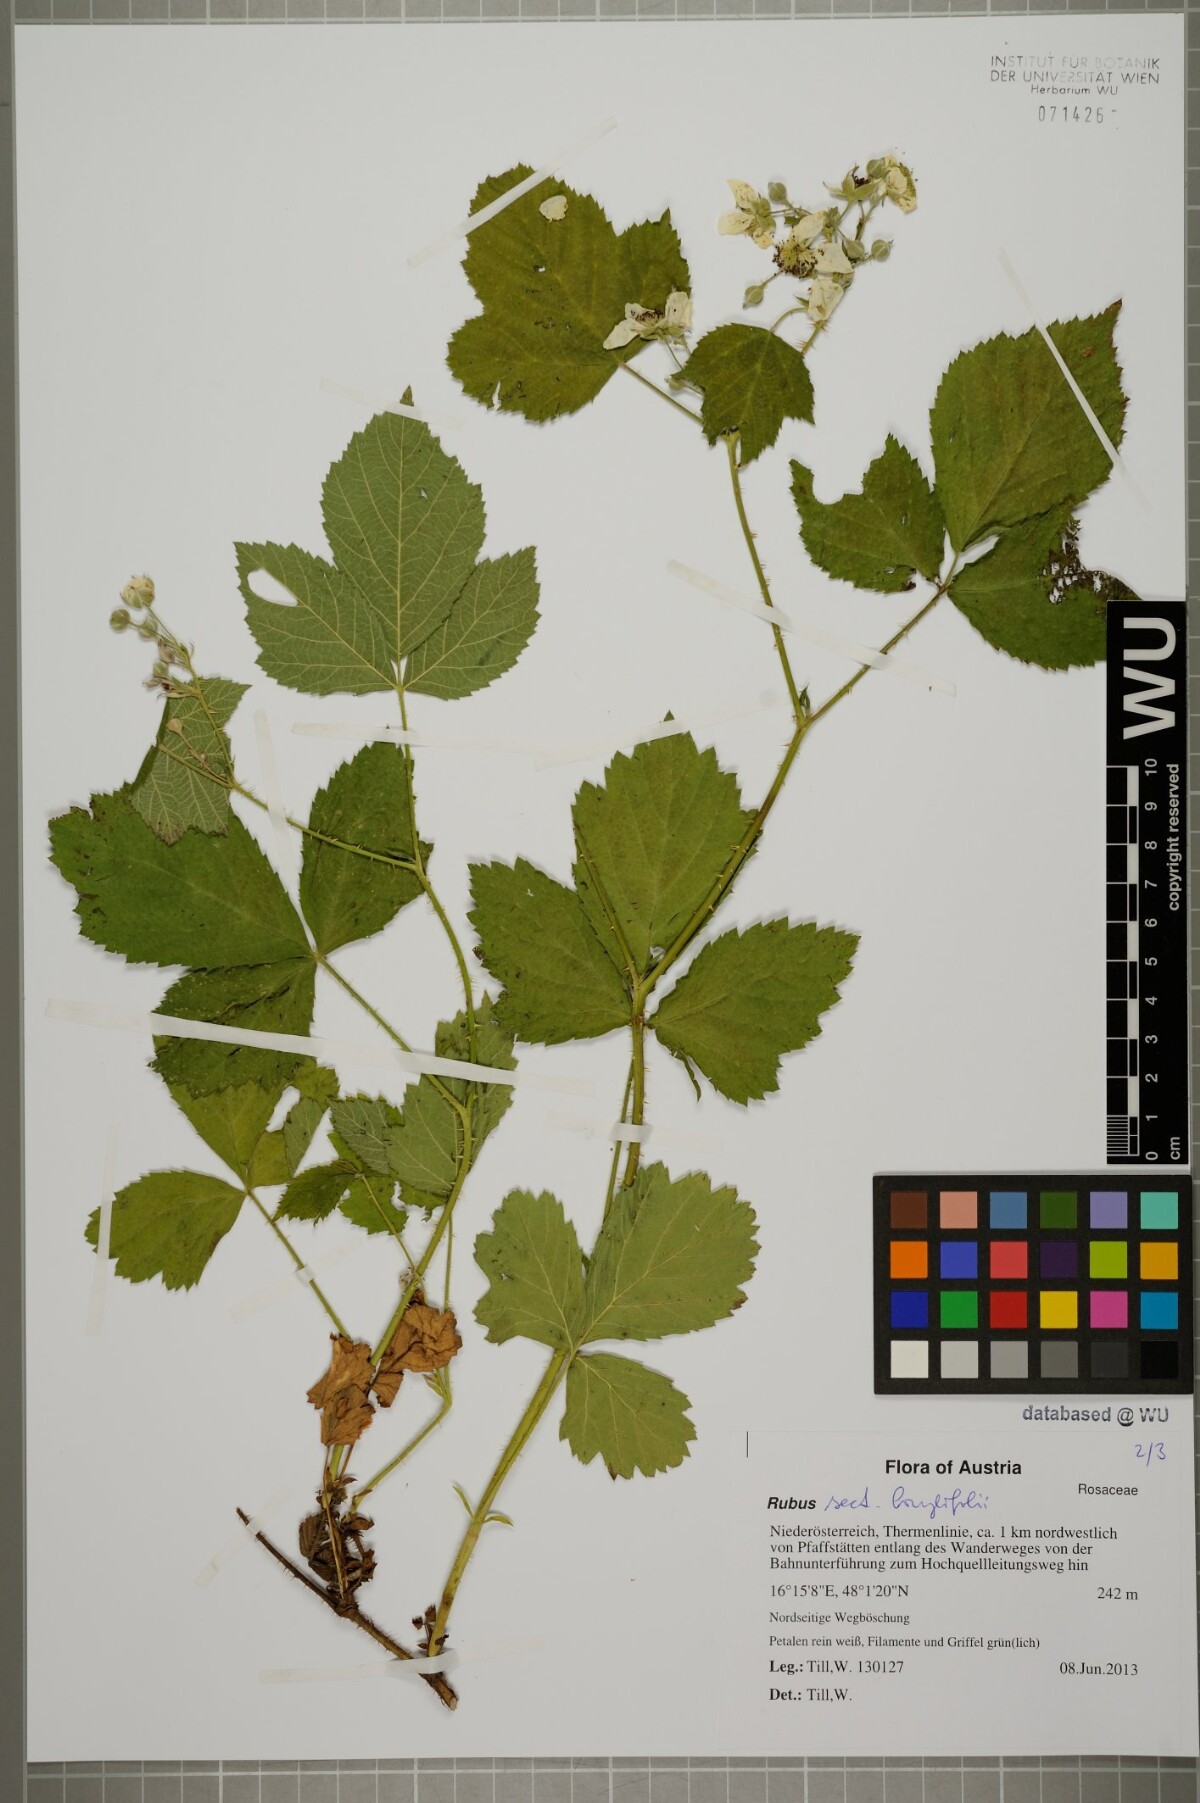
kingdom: Plantae
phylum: Tracheophyta
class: Magnoliopsida
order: Rosales
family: Rosaceae
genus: Rubus
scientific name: Rubus
